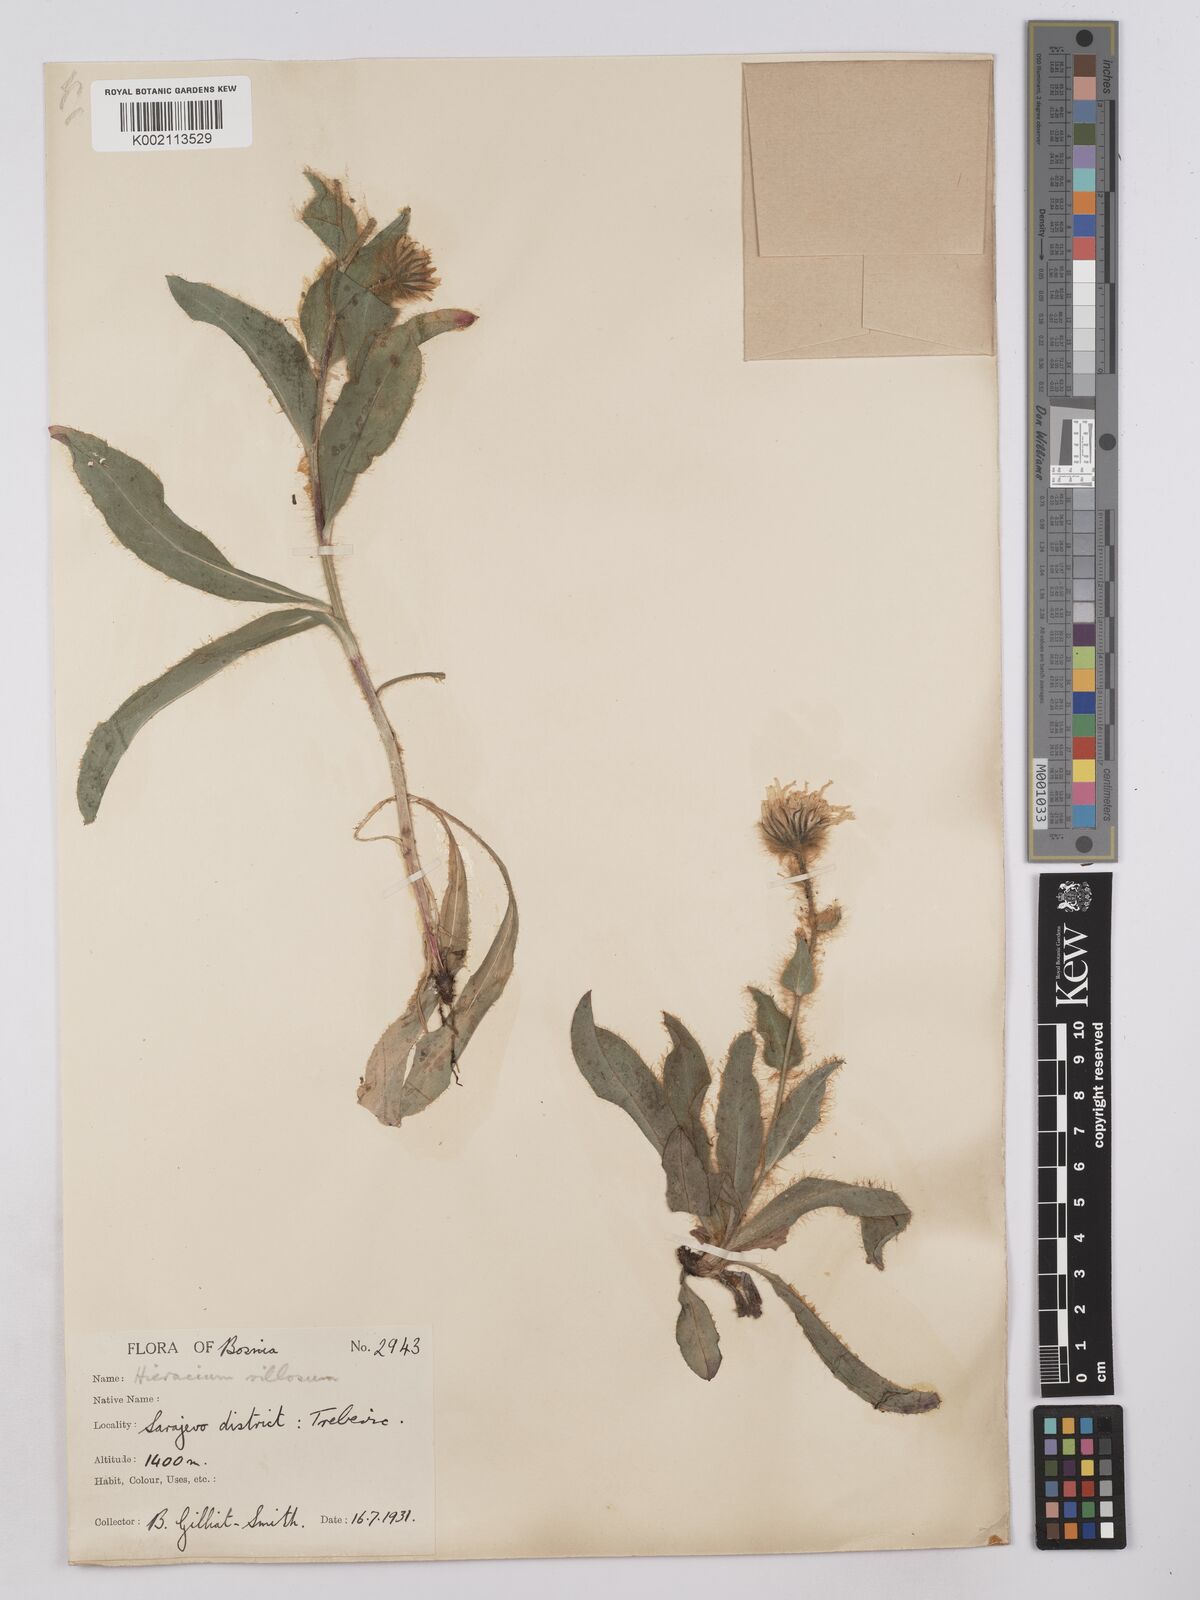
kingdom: Plantae
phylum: Tracheophyta
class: Magnoliopsida
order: Asterales
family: Asteraceae
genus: Hieracium
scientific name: Hieracium
